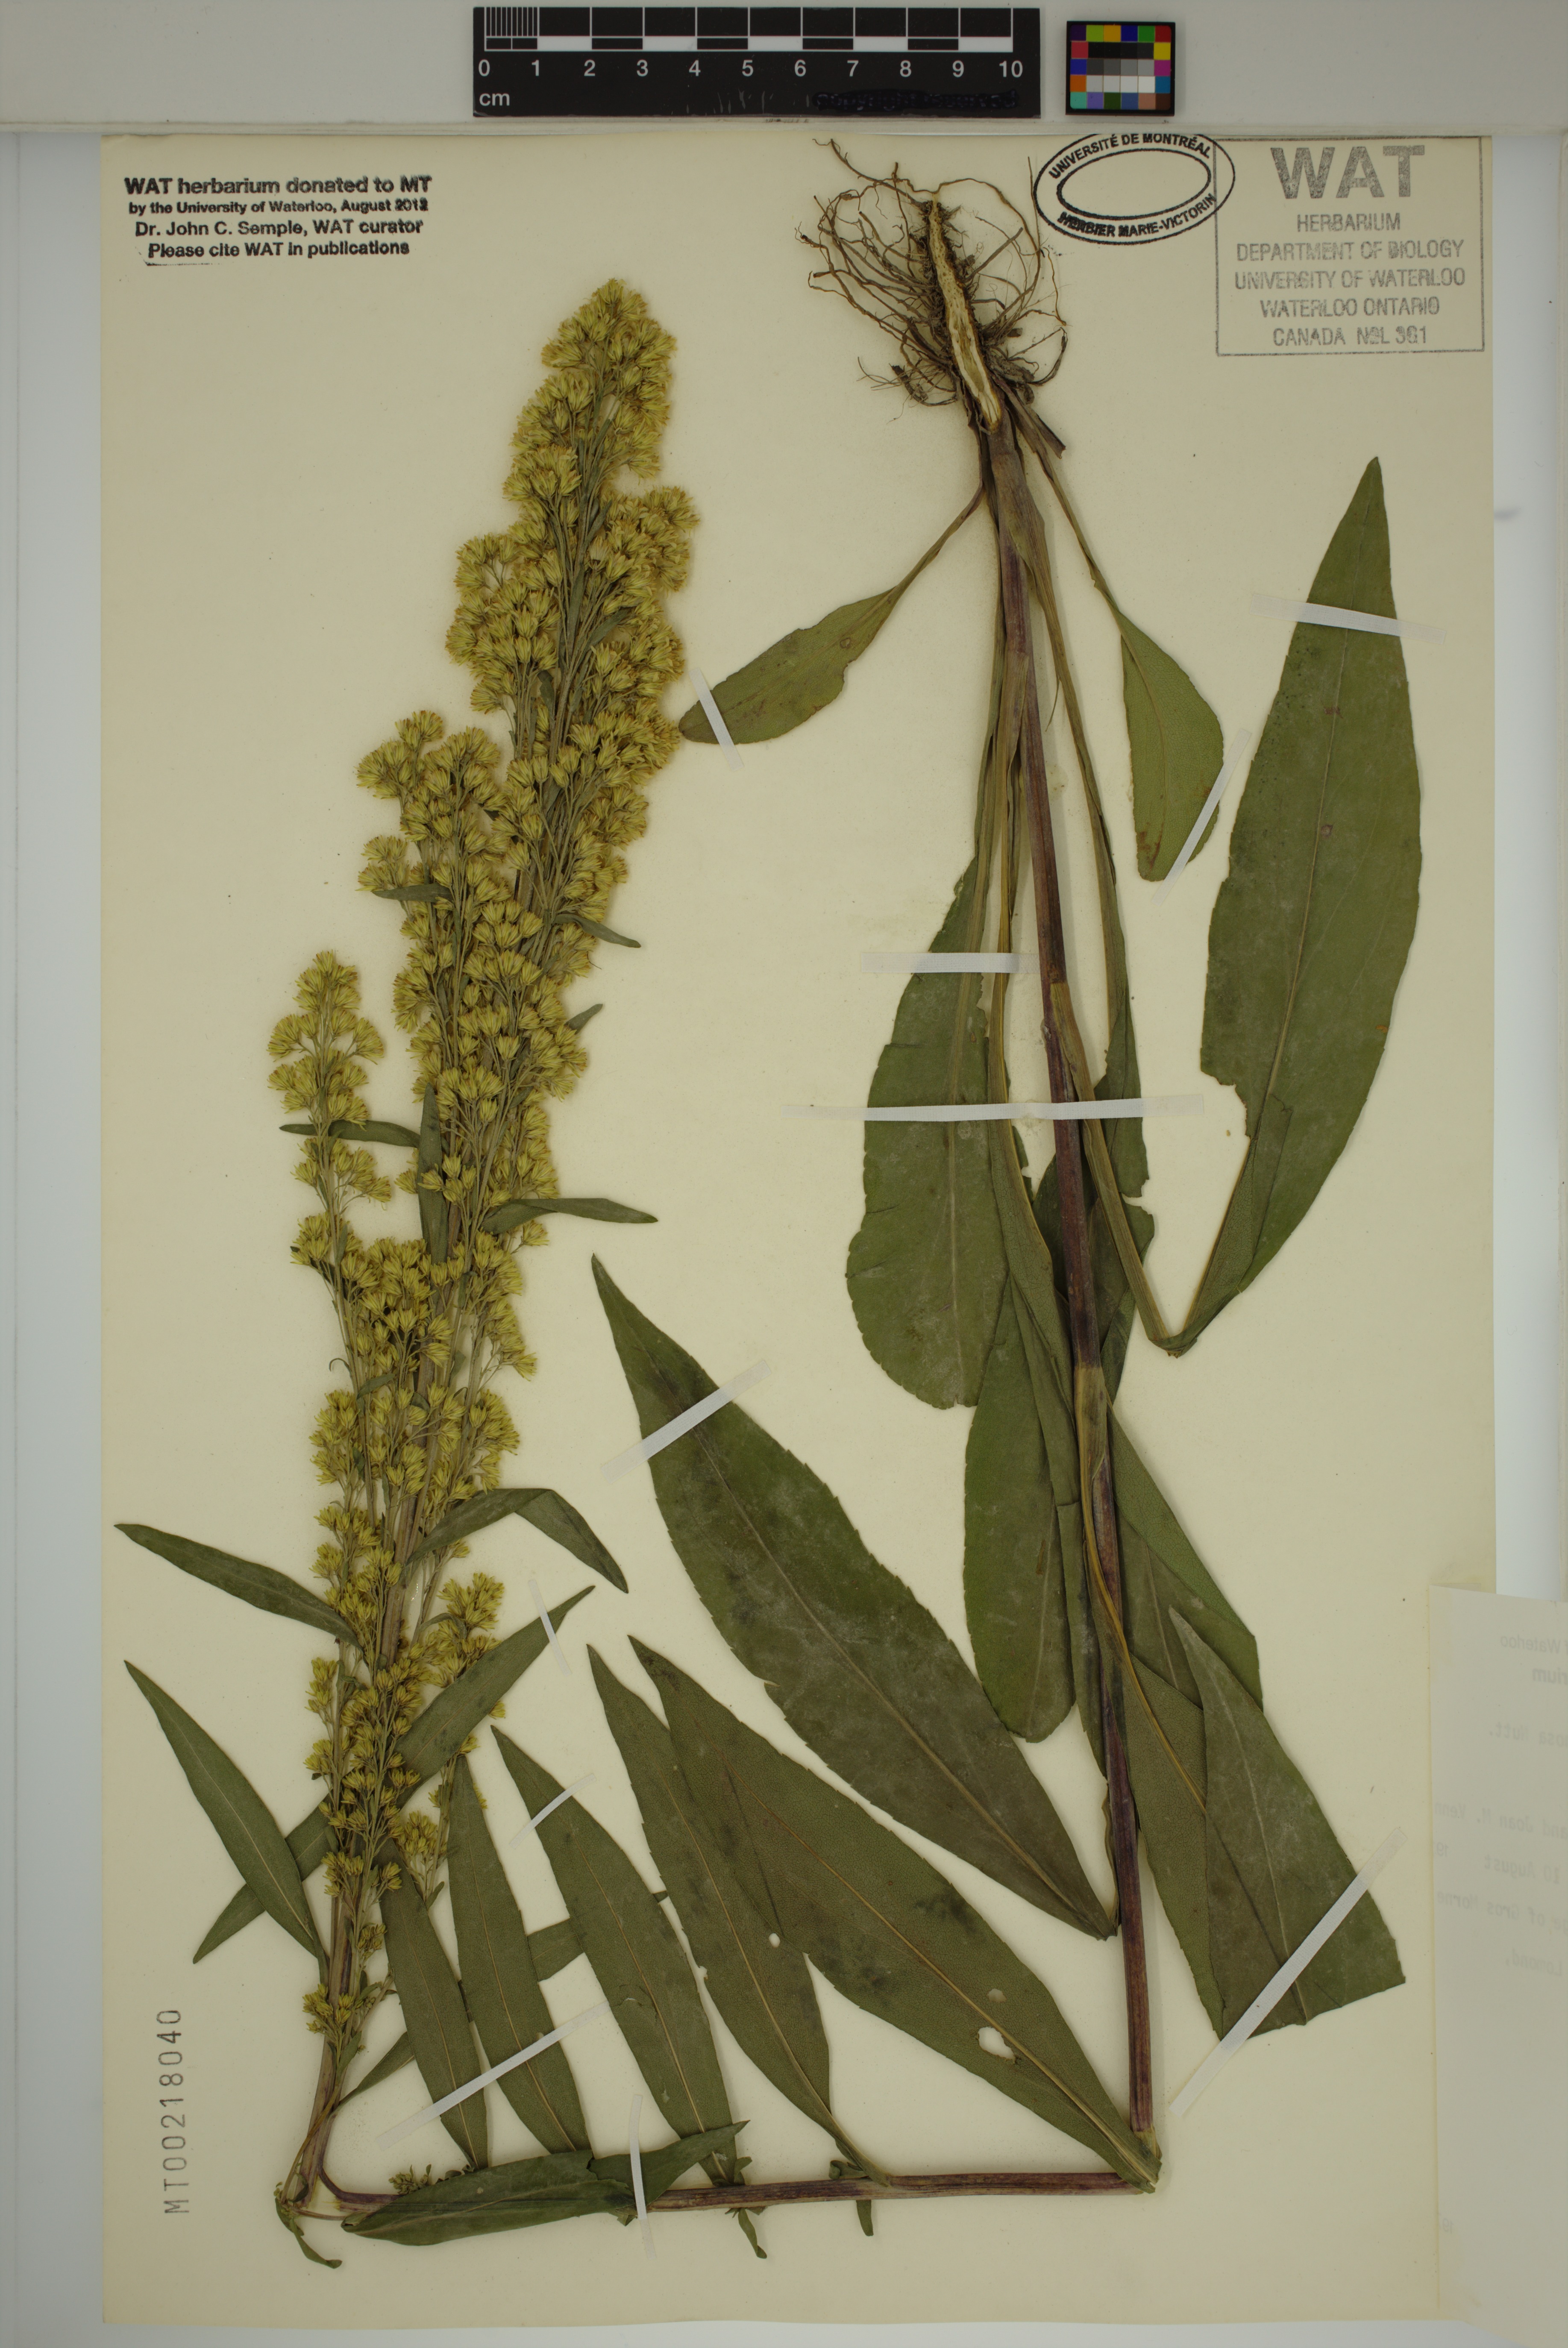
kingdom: Plantae
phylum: Tracheophyta
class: Magnoliopsida
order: Asterales
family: Asteraceae
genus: Solidago
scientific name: Solidago uliginosa
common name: Bog goldenrod
